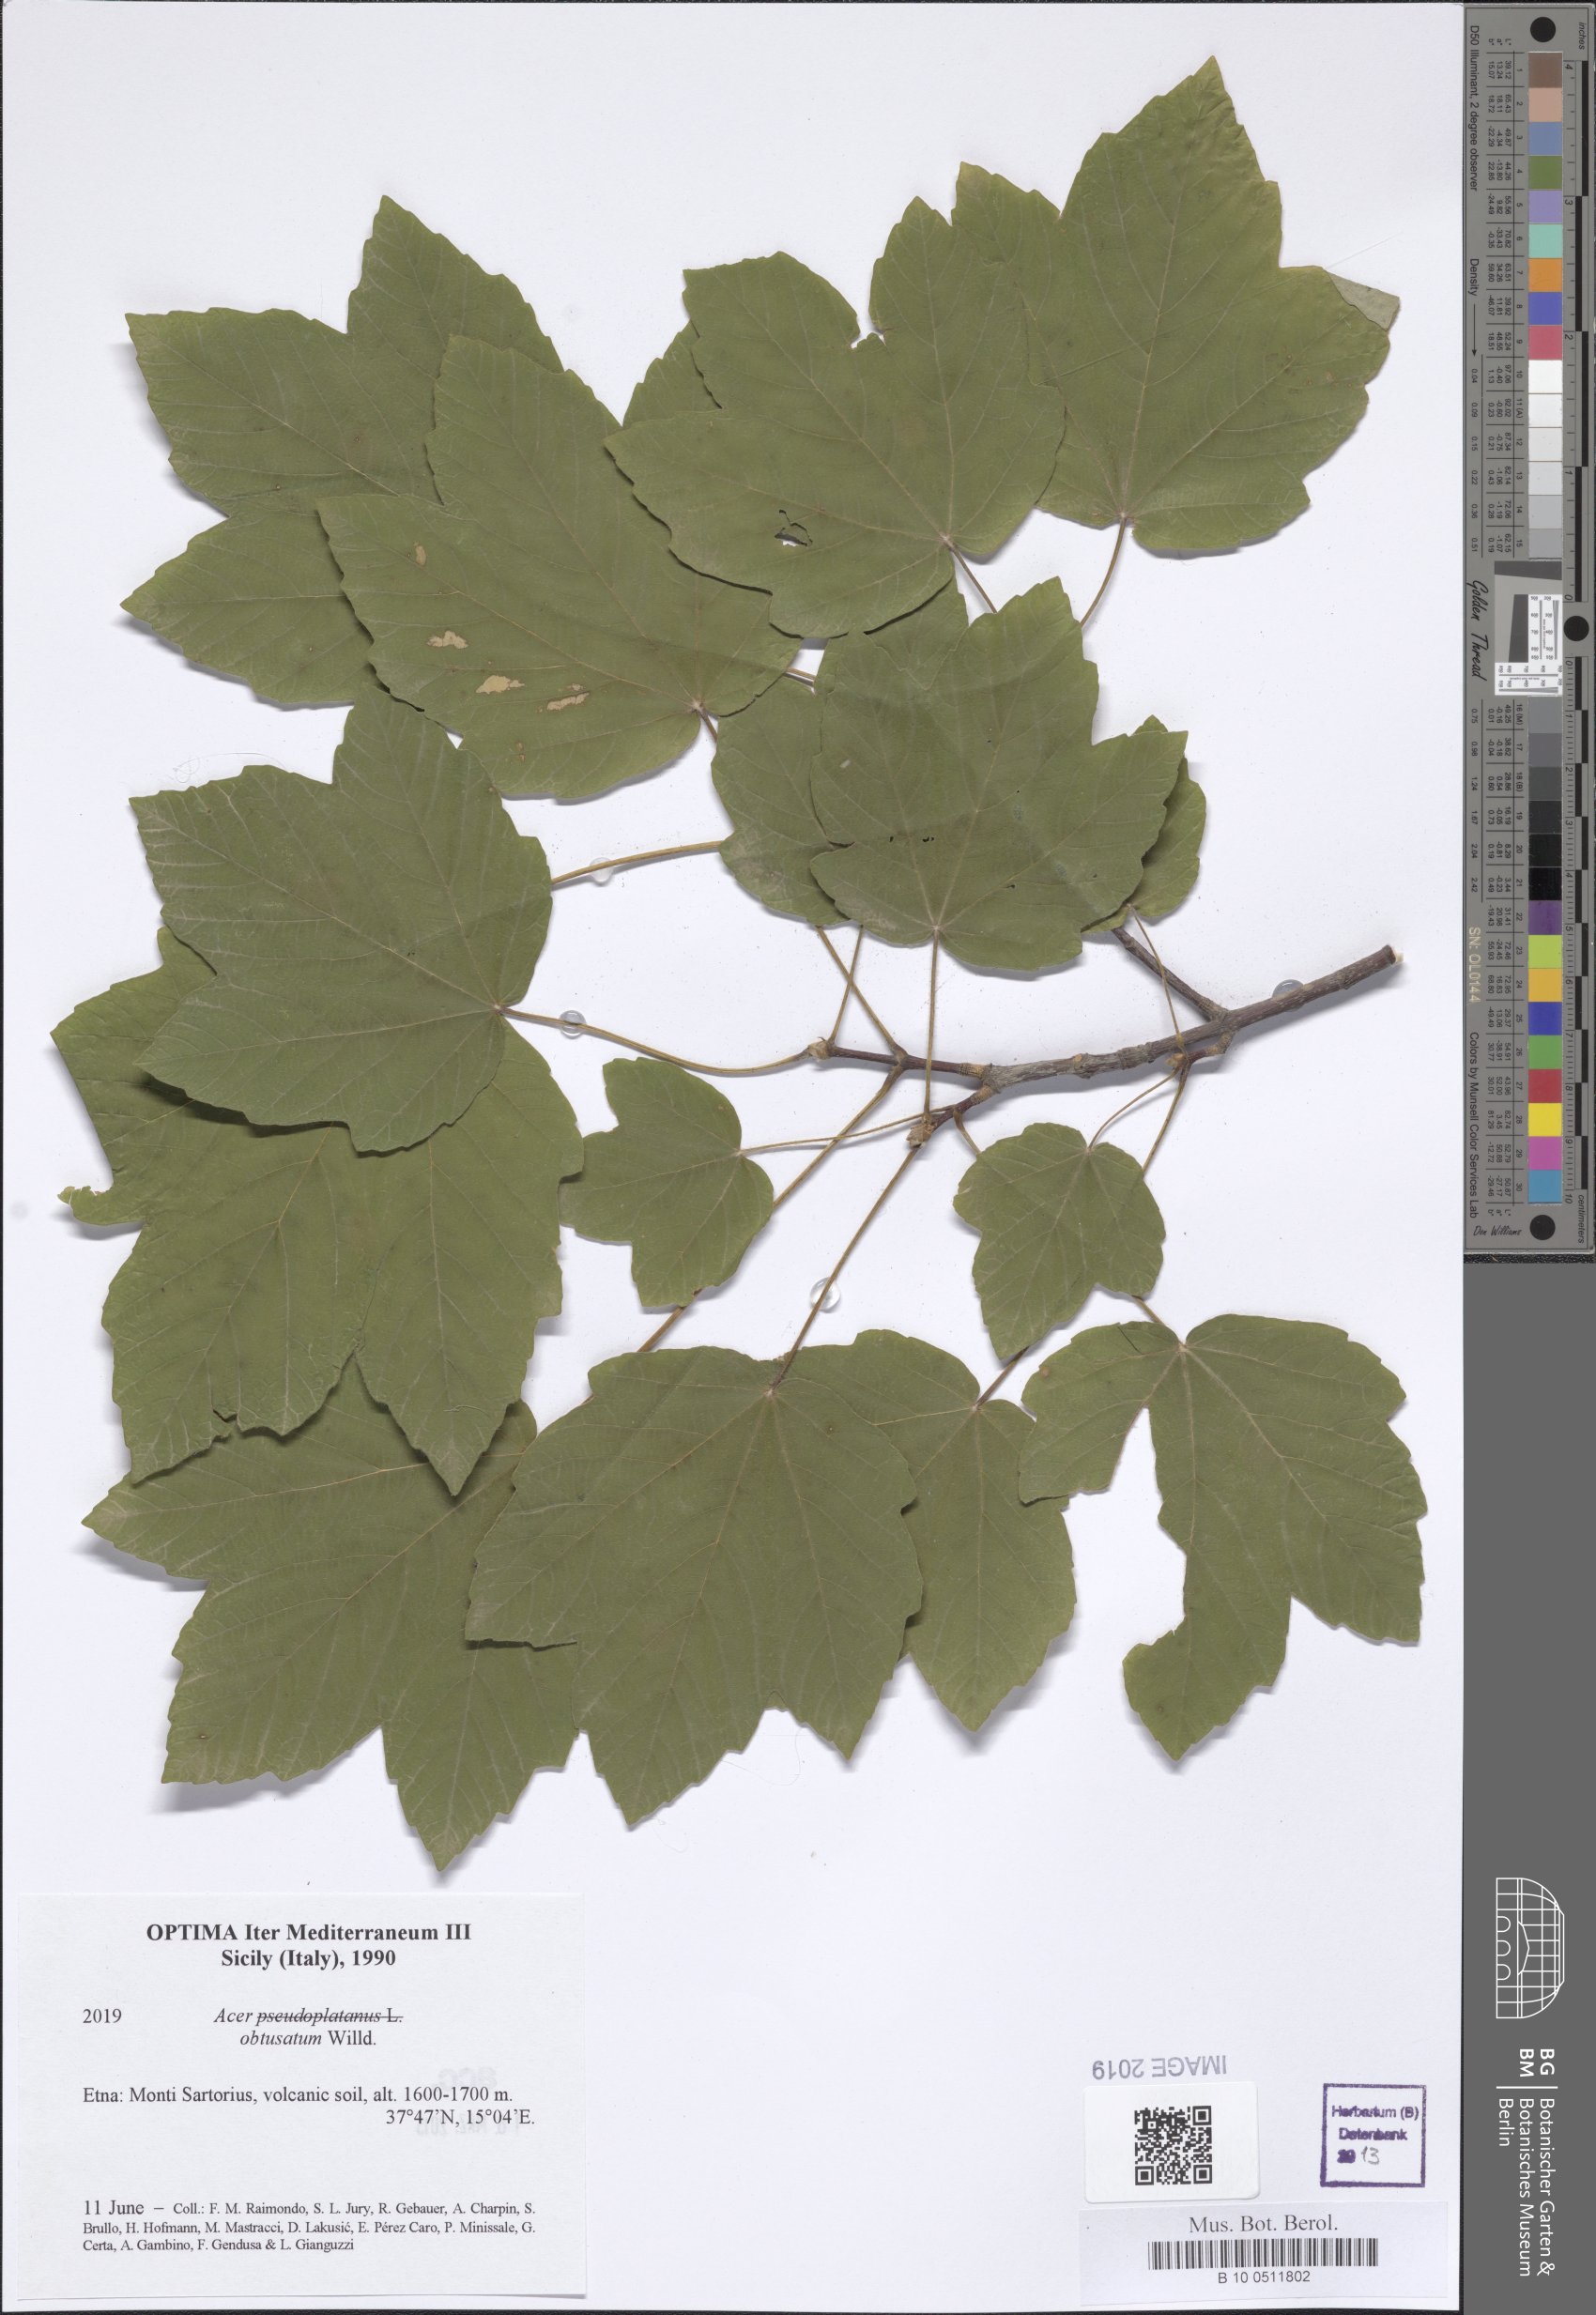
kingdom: Plantae
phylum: Tracheophyta
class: Magnoliopsida
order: Sapindales
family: Sapindaceae
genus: Acer
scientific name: Acer obtusatum
